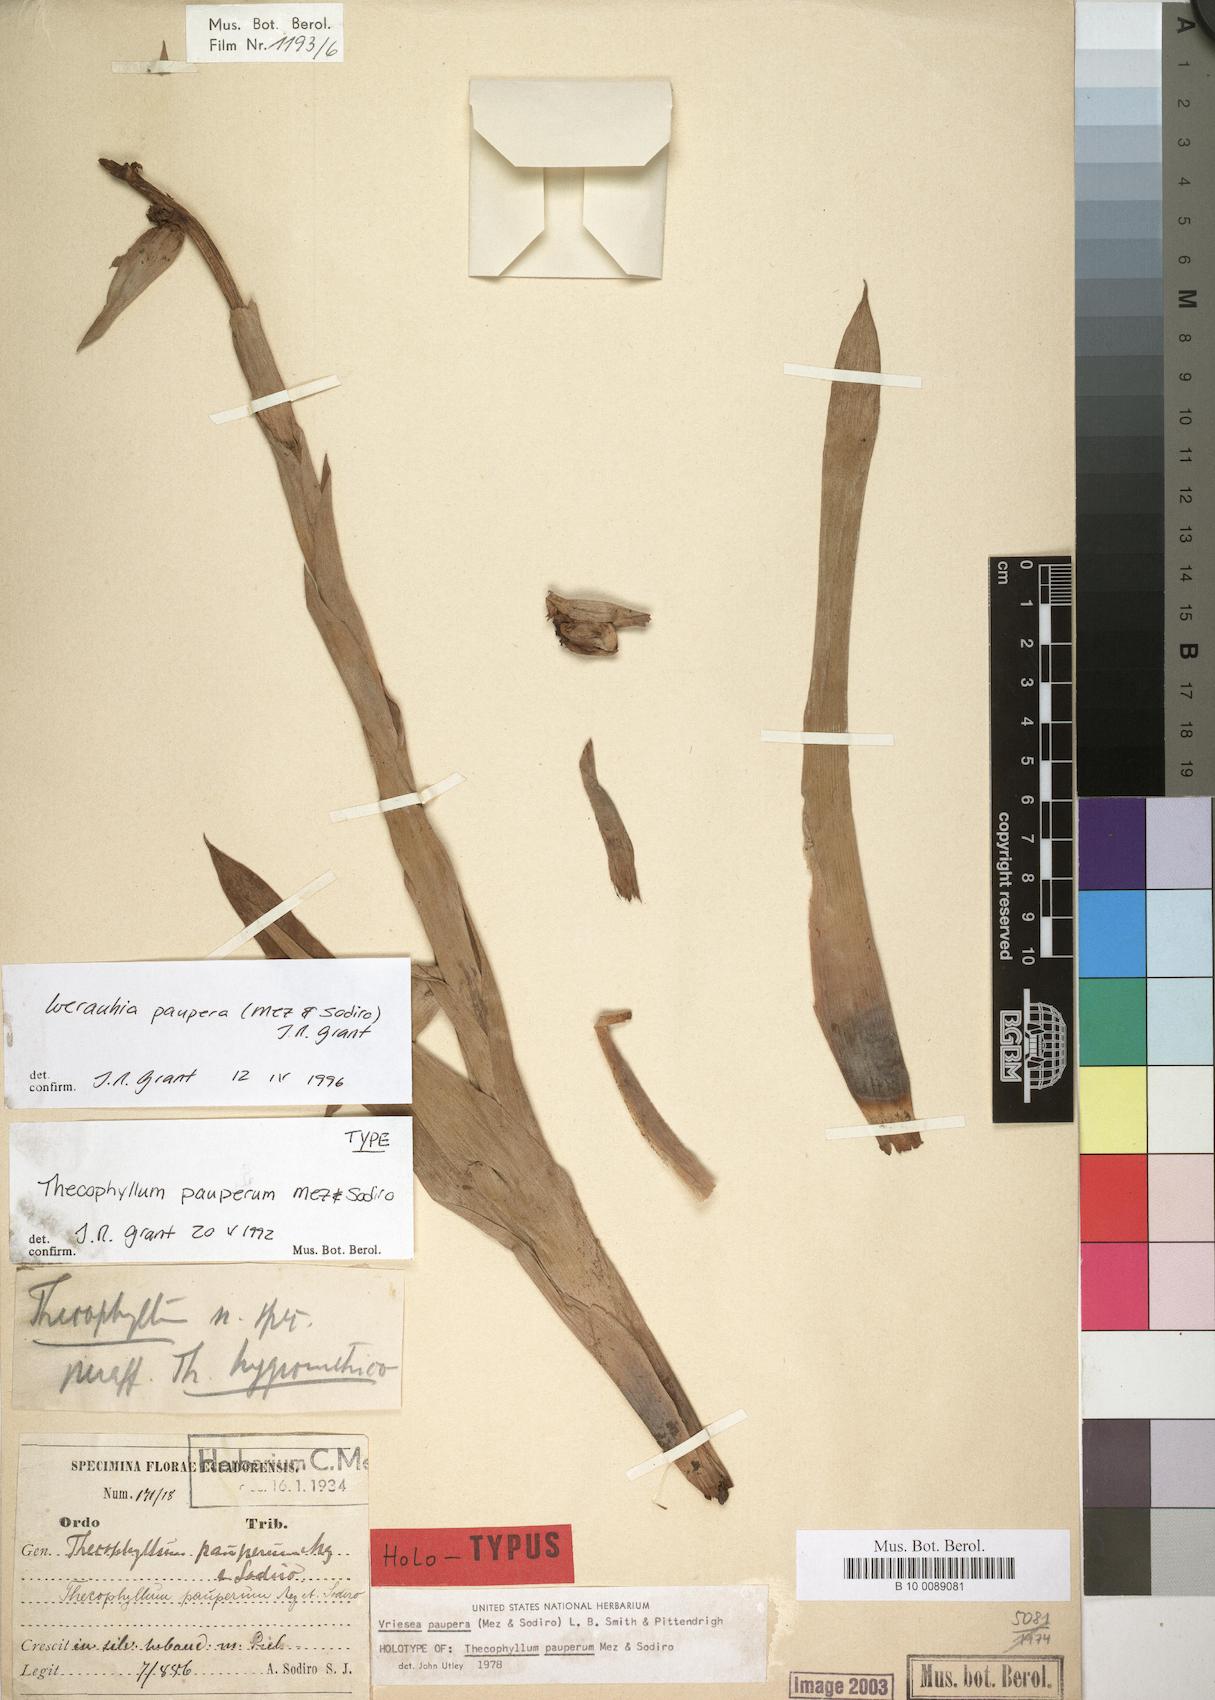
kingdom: Plantae
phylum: Tracheophyta
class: Liliopsida
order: Poales
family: Bromeliaceae
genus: Werauhia
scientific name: Werauhia paupera
